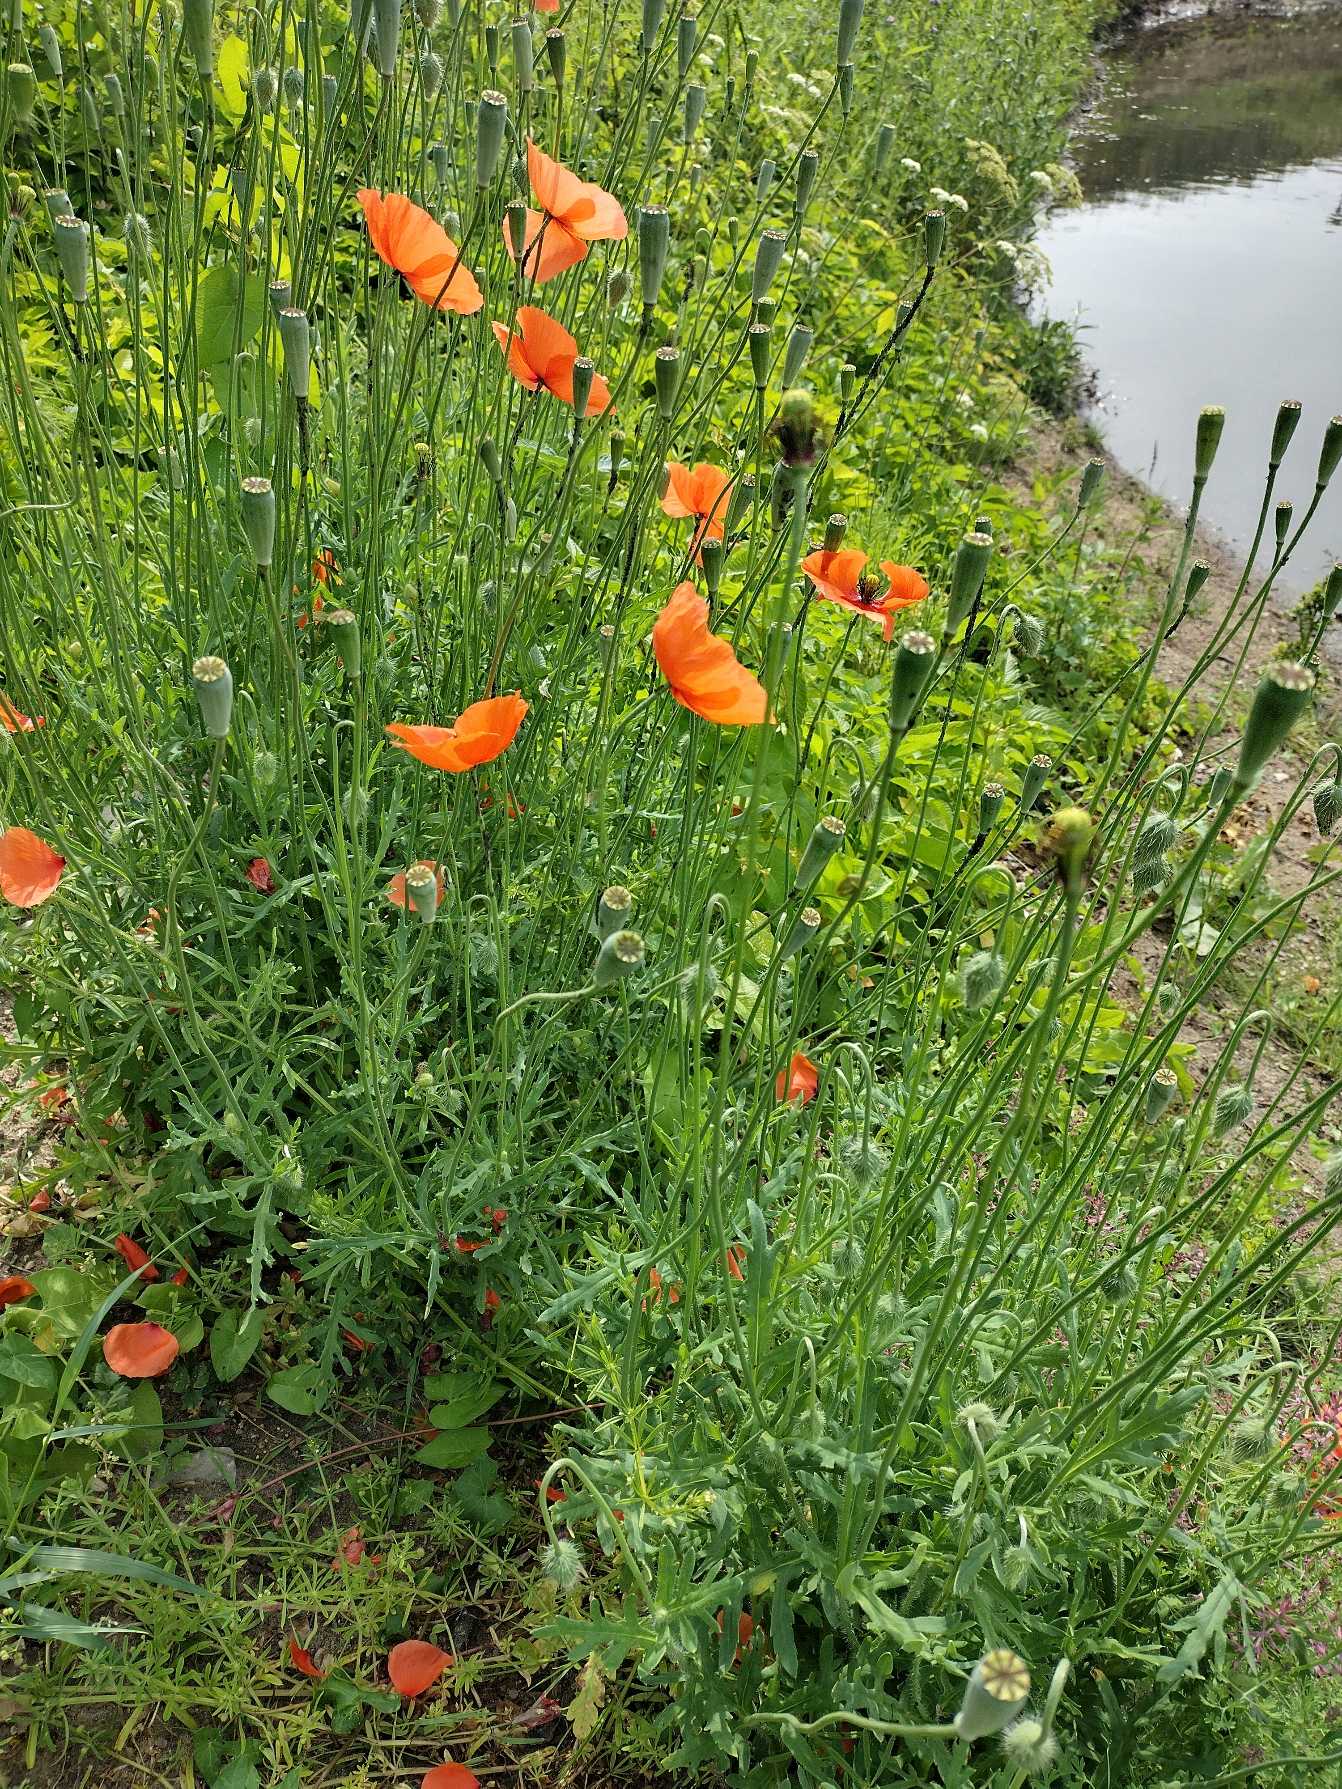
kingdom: Plantae
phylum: Tracheophyta
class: Magnoliopsida
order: Ranunculales
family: Papaveraceae
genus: Papaver
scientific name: Papaver dubium
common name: Gærde-valmue
